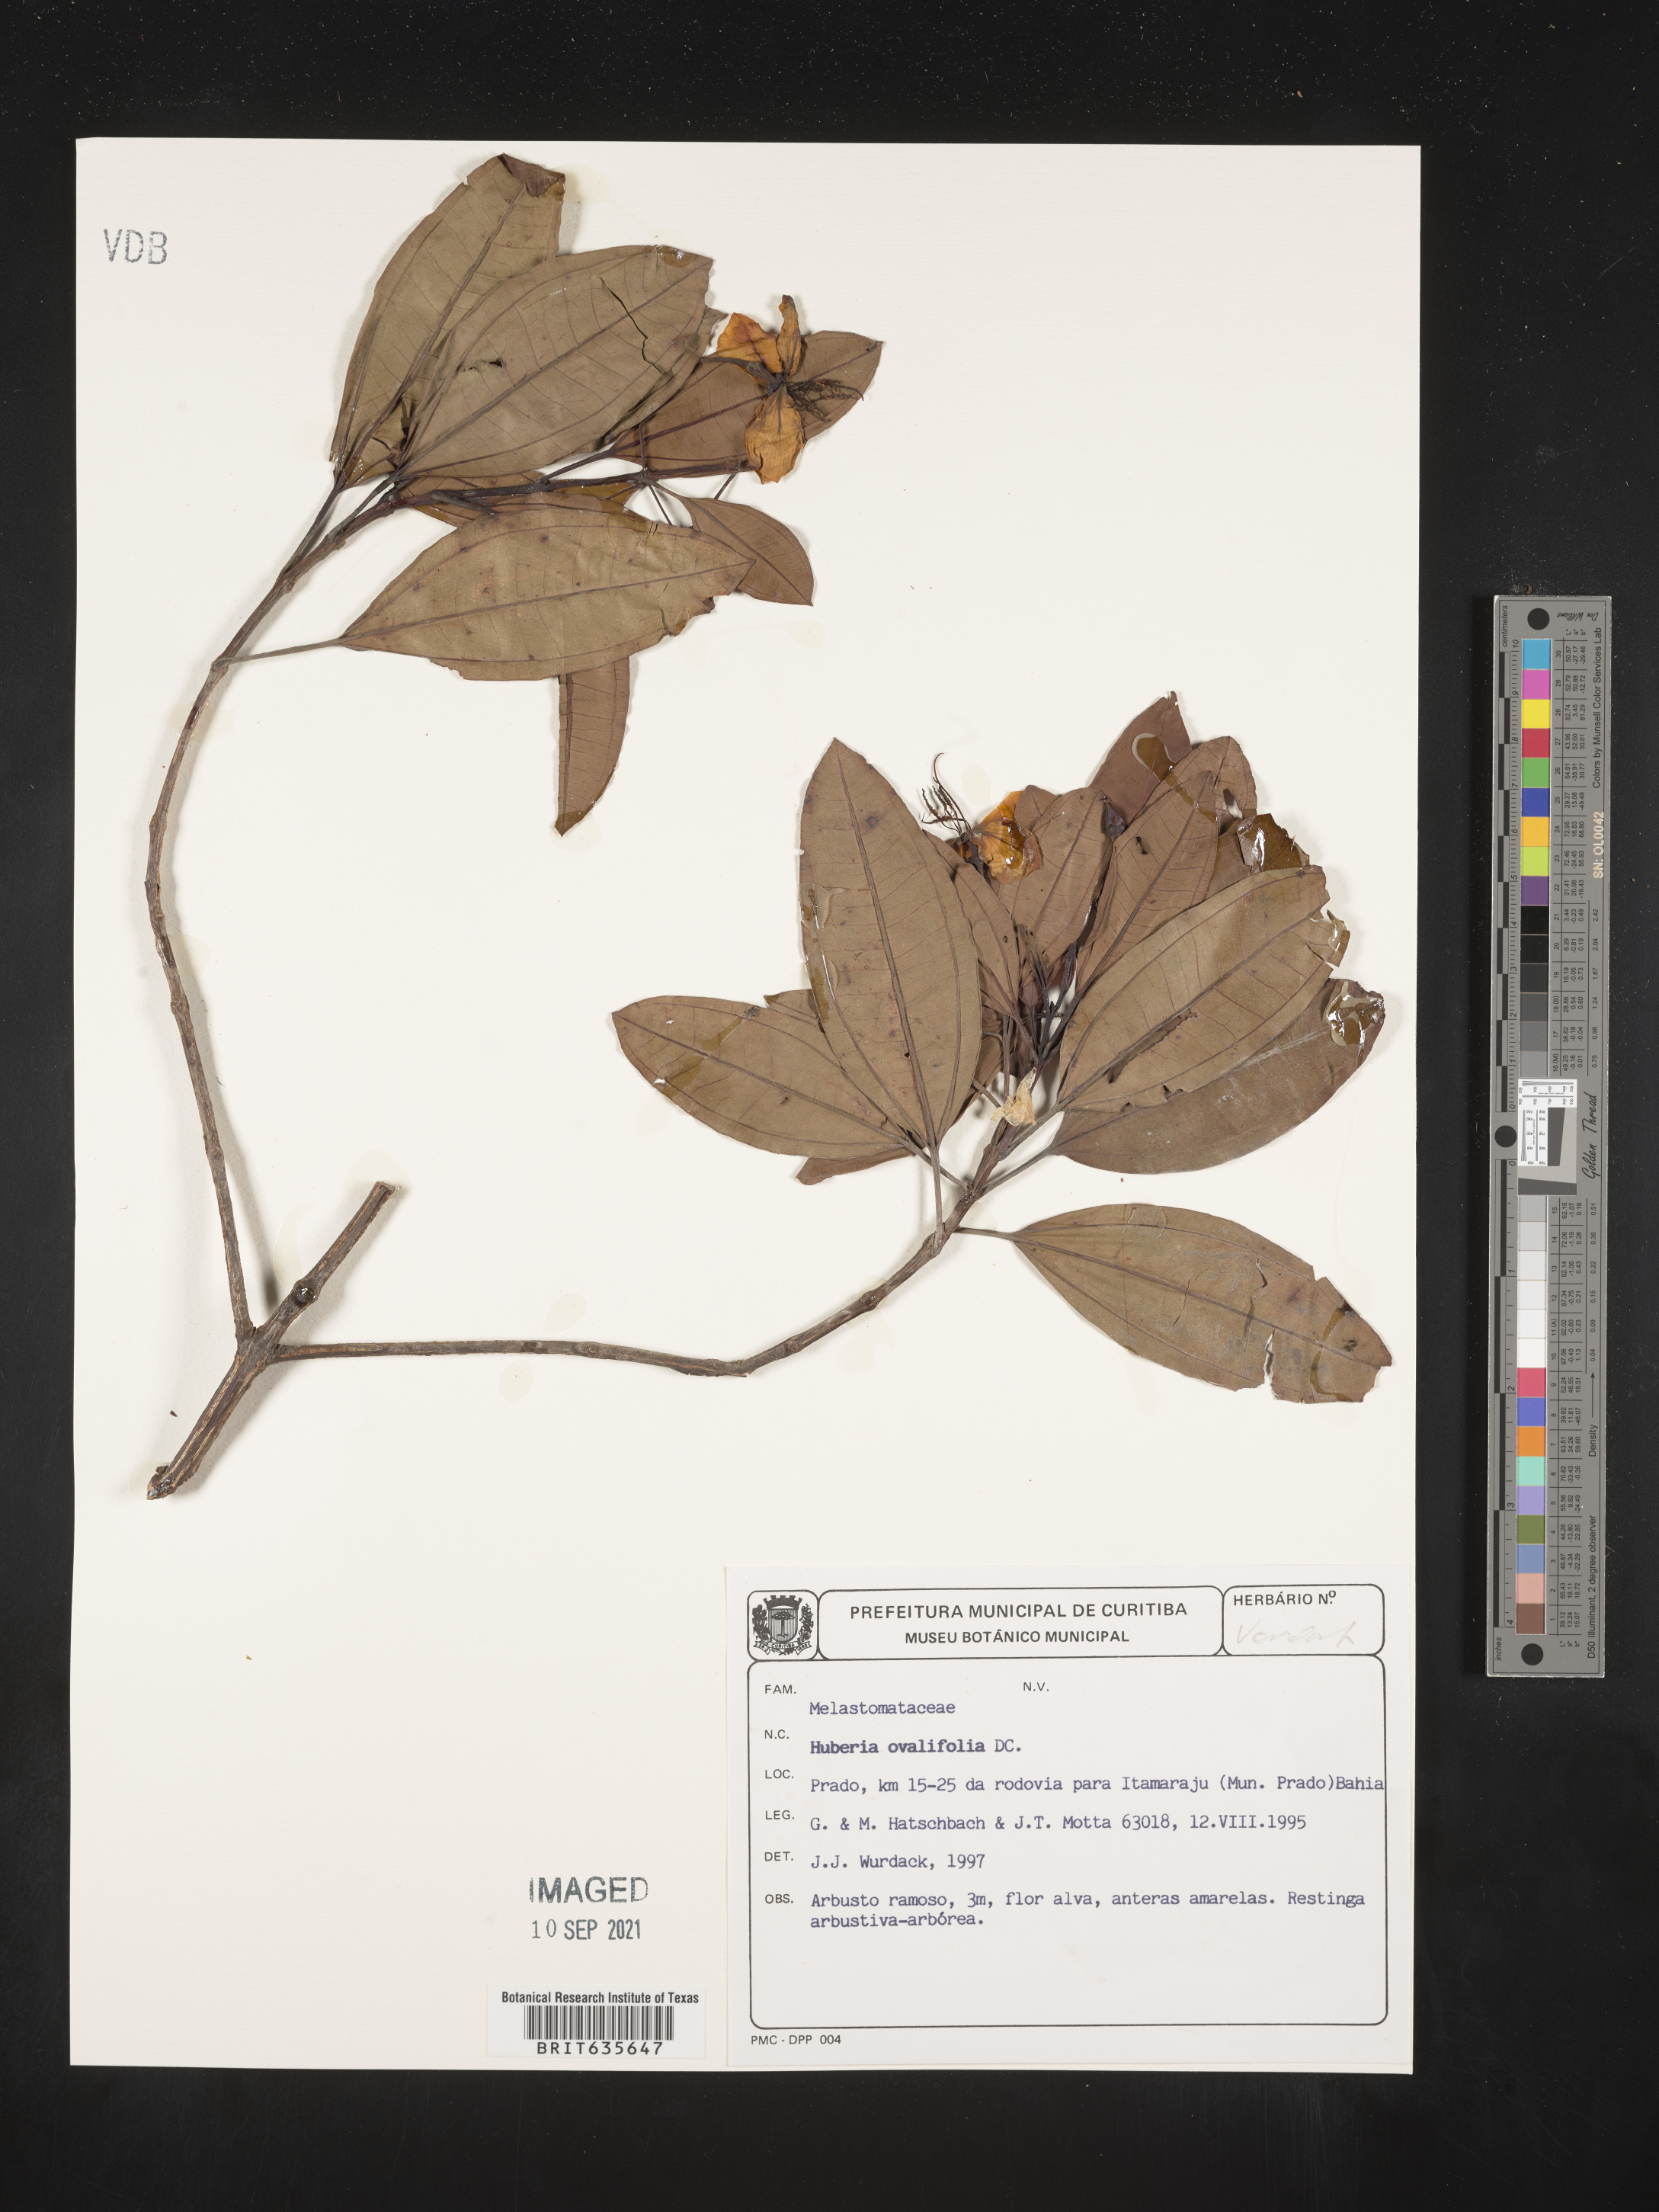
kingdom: Plantae
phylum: Tracheophyta
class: Magnoliopsida
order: Myrtales
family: Melastomataceae
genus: Huberia
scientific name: Huberia
